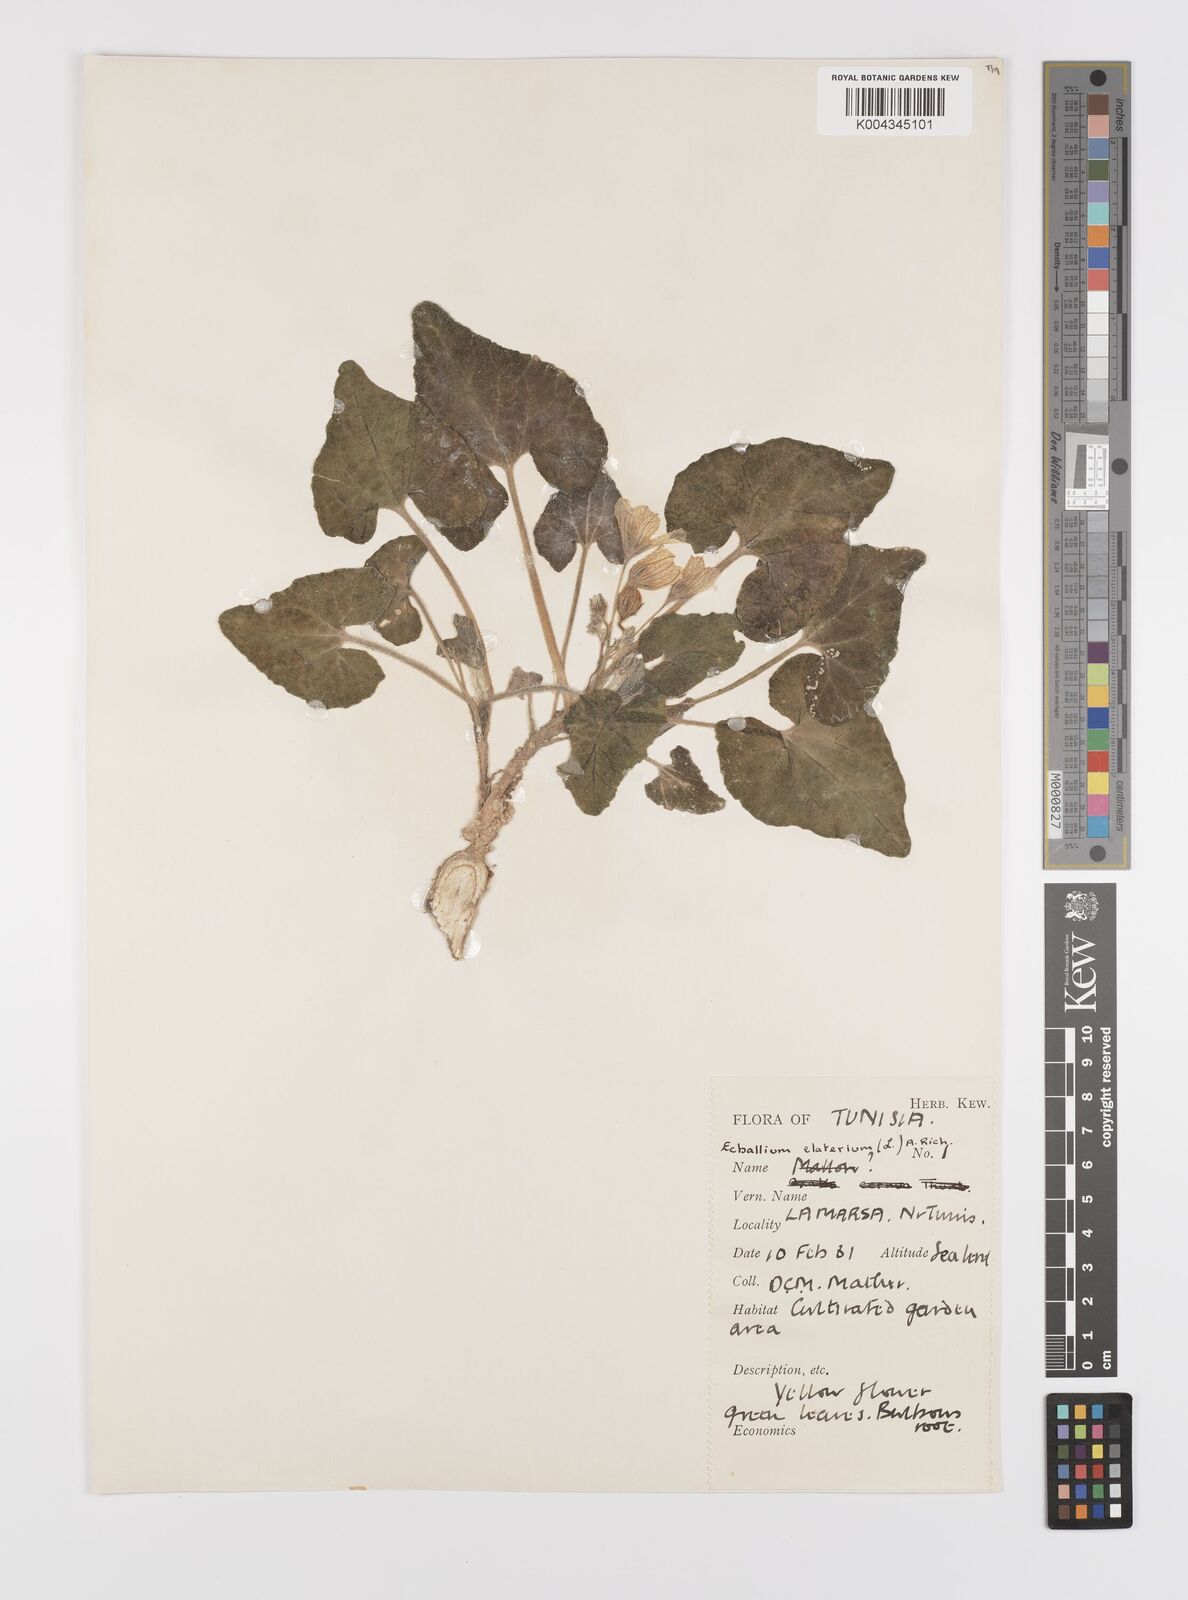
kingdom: Plantae
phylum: Tracheophyta
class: Magnoliopsida
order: Cucurbitales
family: Cucurbitaceae
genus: Ecballium
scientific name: Ecballium elaterium
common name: Squirting cucumber
